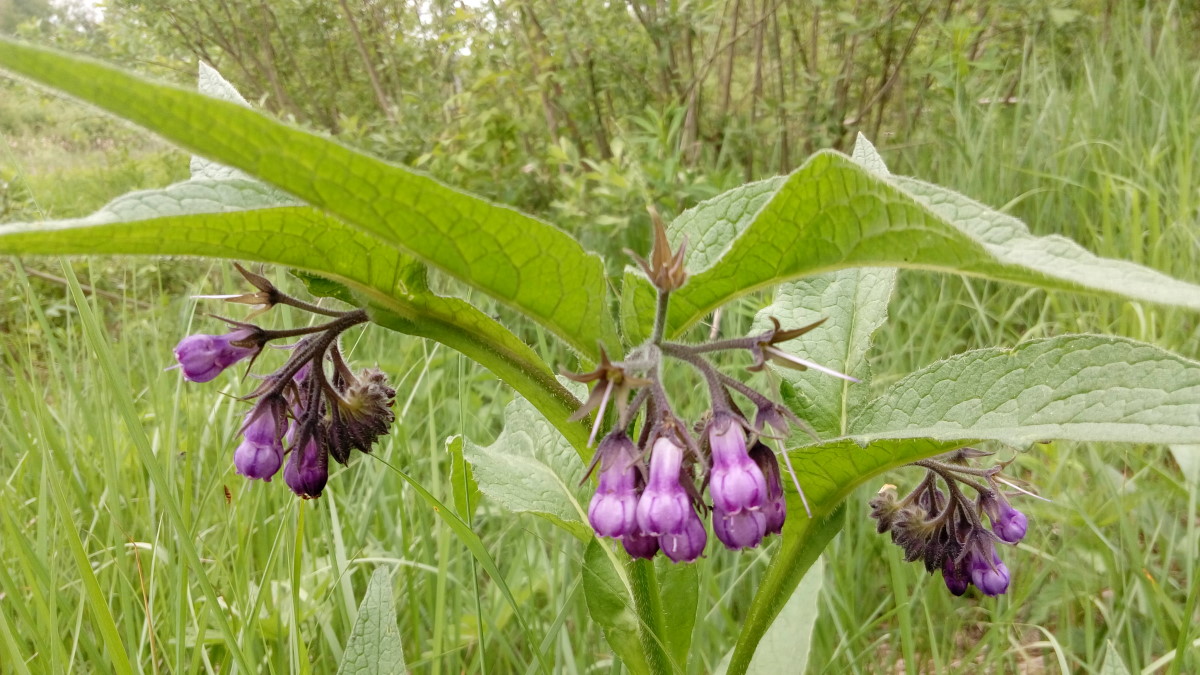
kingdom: Plantae
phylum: Tracheophyta
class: Magnoliopsida
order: Boraginales
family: Boraginaceae
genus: Symphytum
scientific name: Symphytum officinale
